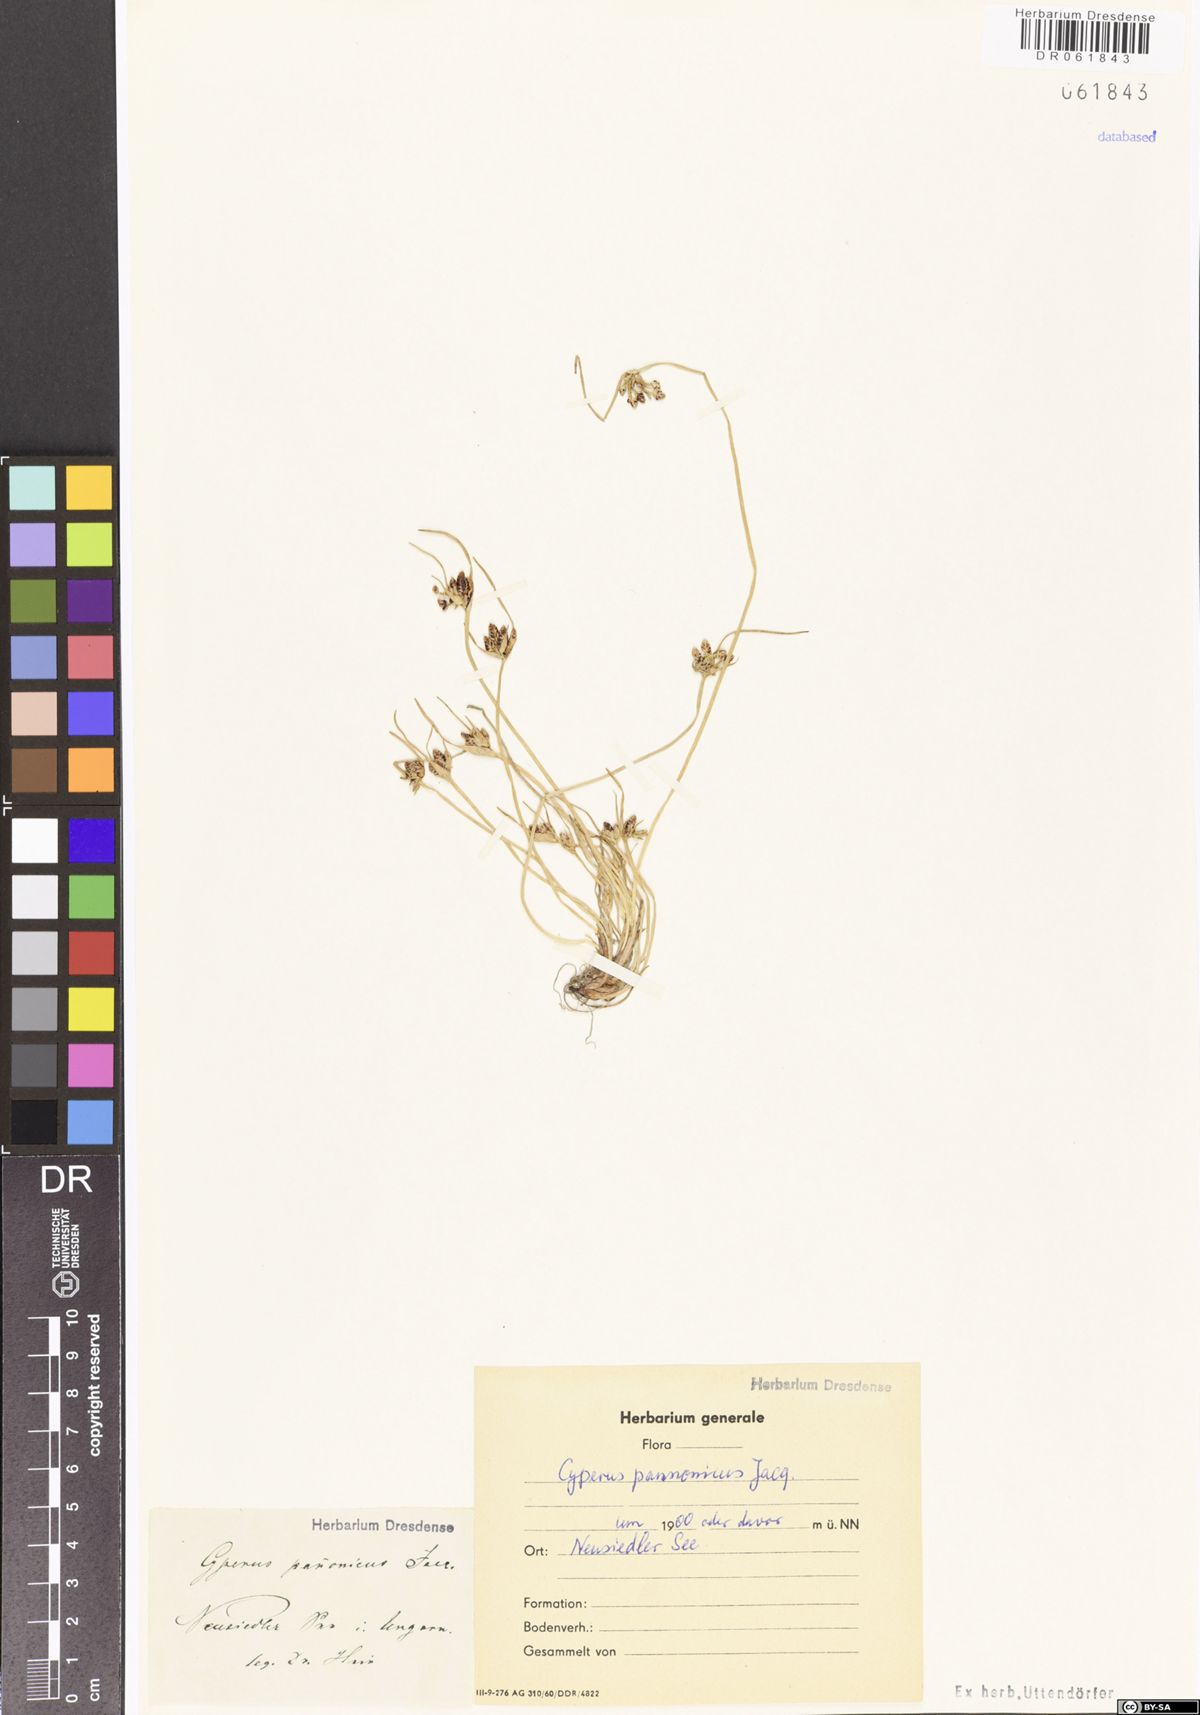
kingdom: Plantae
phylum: Tracheophyta
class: Liliopsida
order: Poales
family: Cyperaceae
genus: Cyperus
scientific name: Cyperus pannonicus
